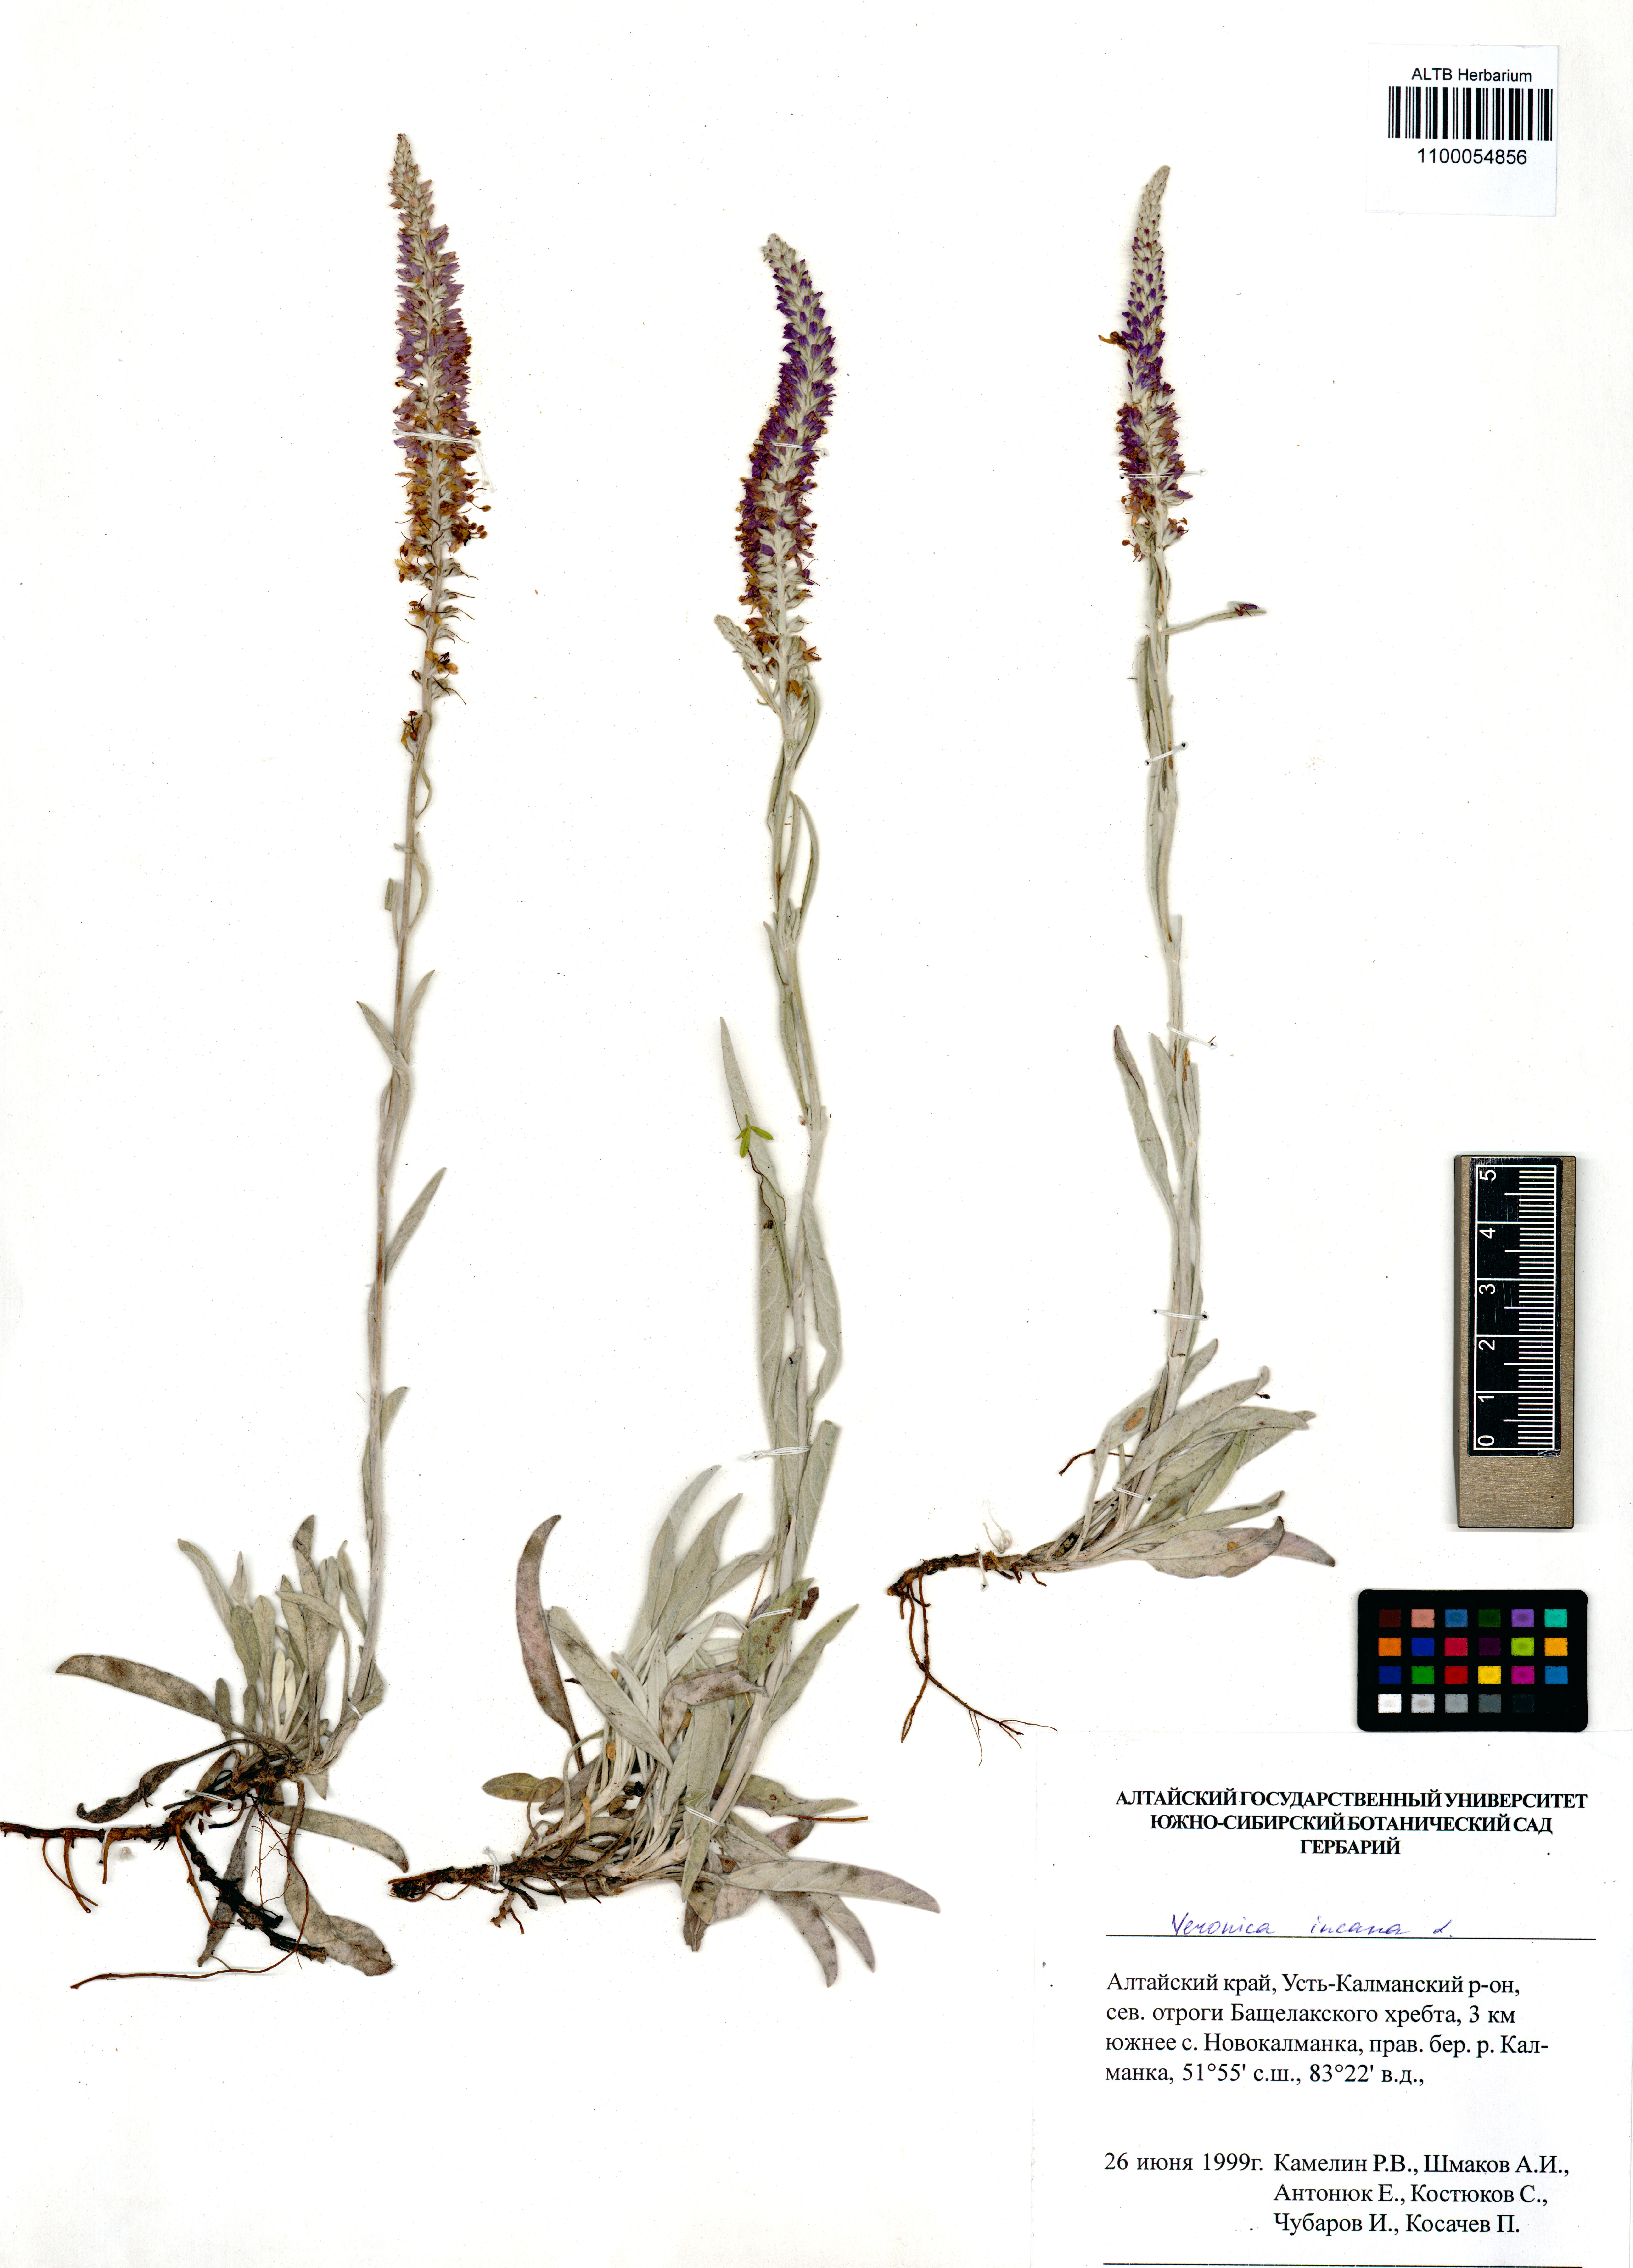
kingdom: Plantae
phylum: Tracheophyta
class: Magnoliopsida
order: Lamiales
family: Plantaginaceae
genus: Veronica
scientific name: Veronica incana
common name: Silver speedwell
